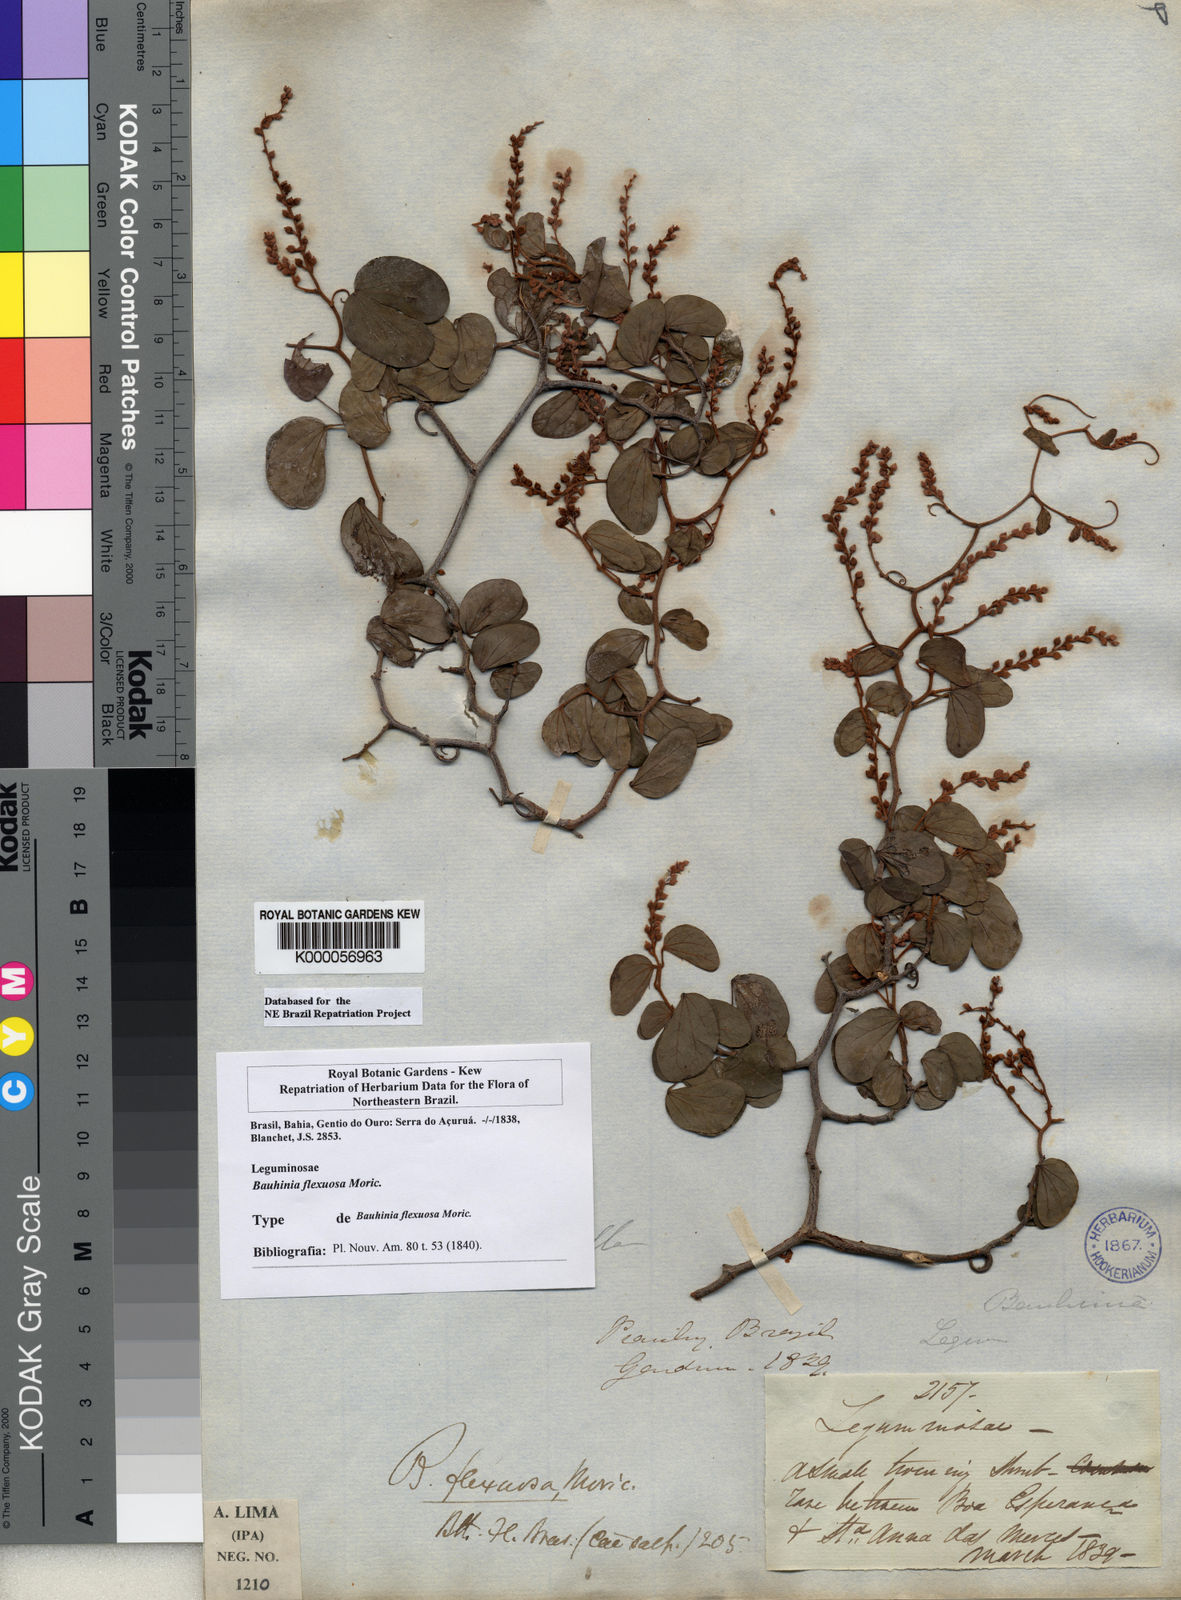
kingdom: Plantae
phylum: Tracheophyta
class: Magnoliopsida
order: Fabales
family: Fabaceae
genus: Schnella
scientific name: Schnella flexuosa
